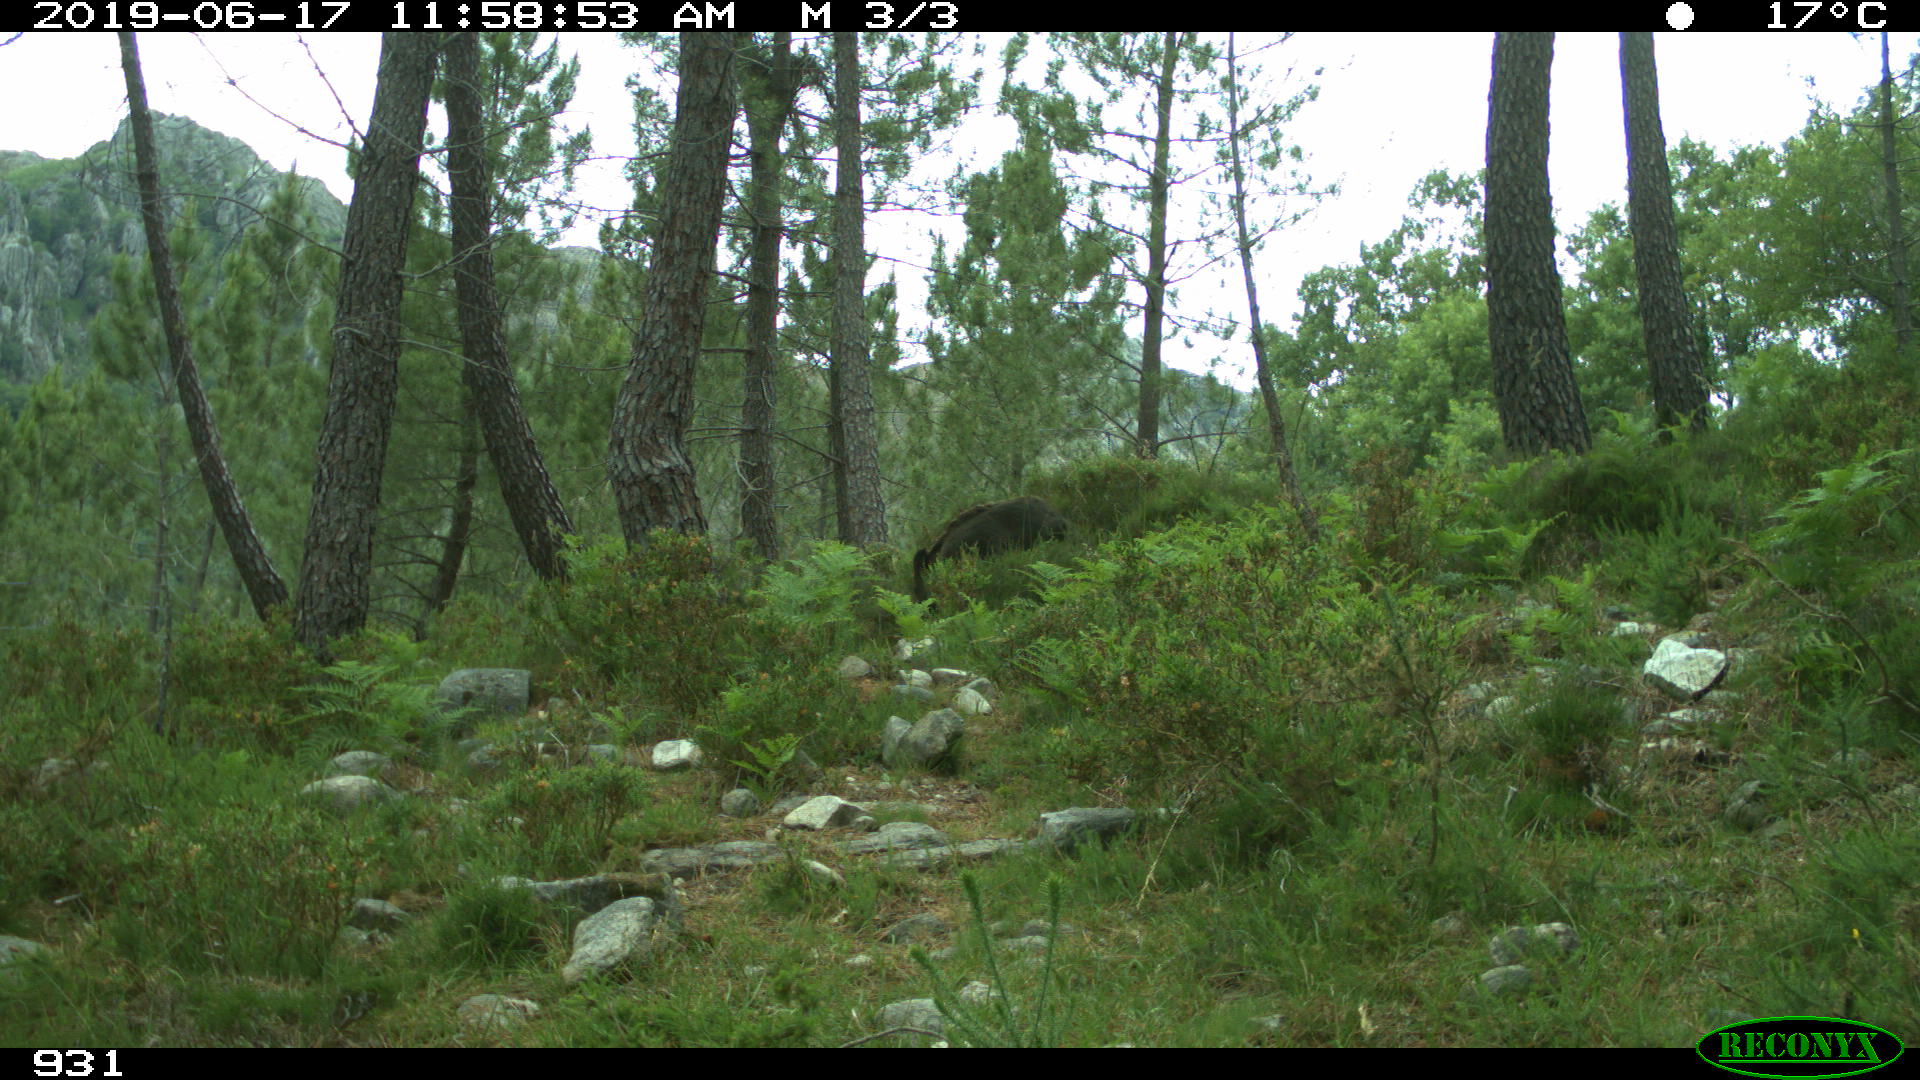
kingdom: Animalia
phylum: Chordata
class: Mammalia
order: Artiodactyla
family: Suidae
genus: Sus
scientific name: Sus scrofa
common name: Wild boar
